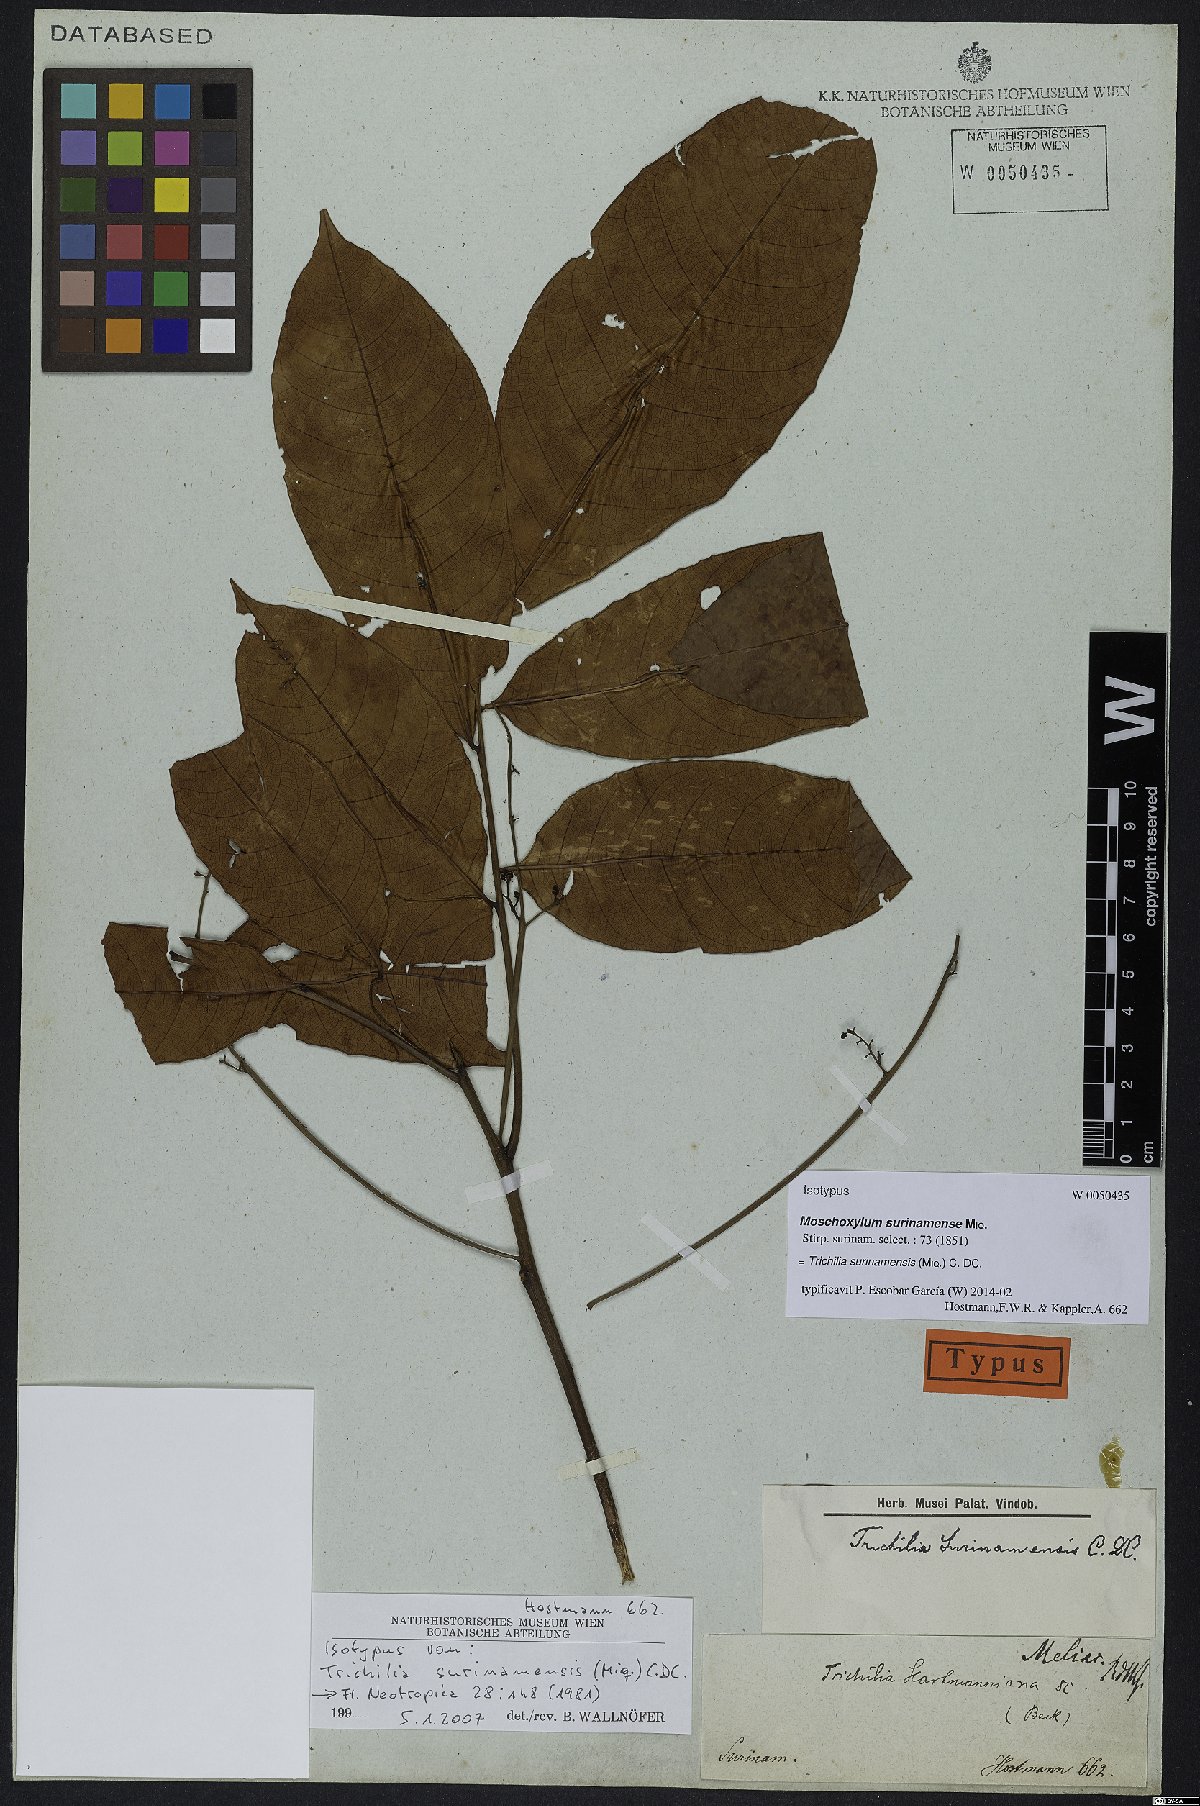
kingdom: Plantae
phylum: Tracheophyta
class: Magnoliopsida
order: Sapindales
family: Meliaceae
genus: Trichilia
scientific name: Trichilia surinamensis
